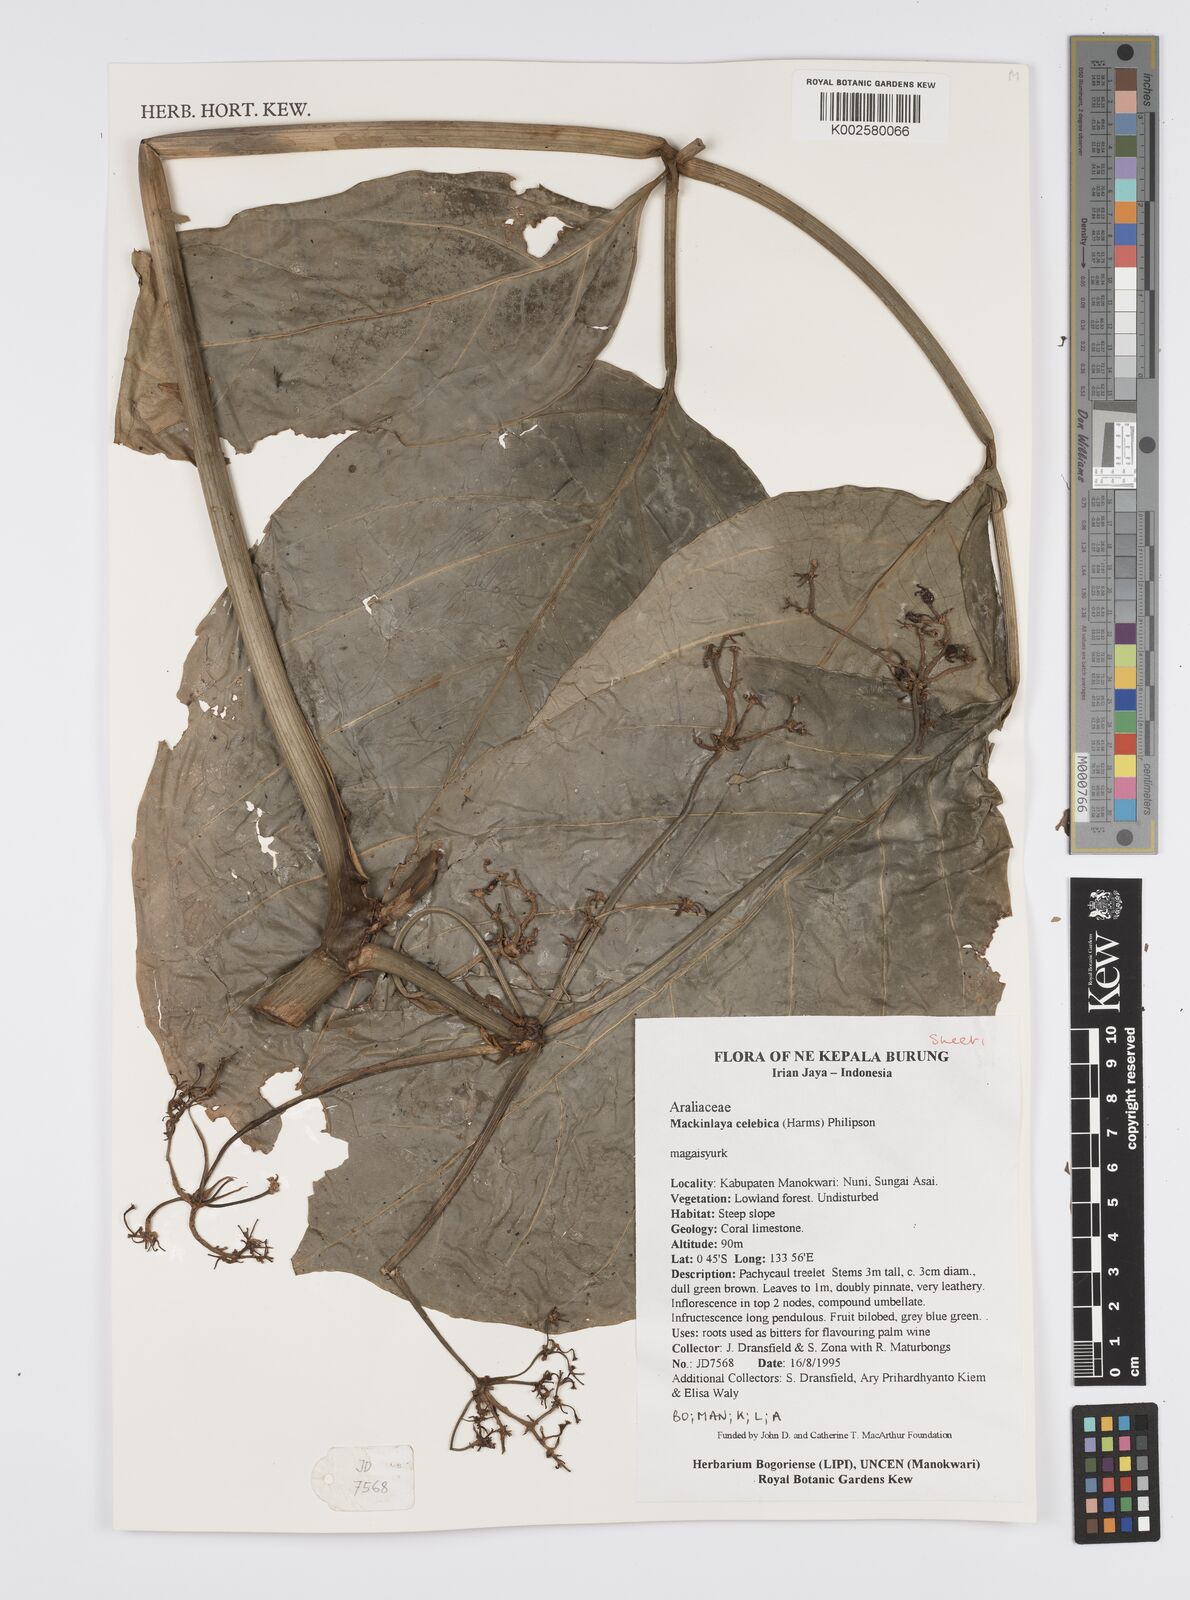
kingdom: Plantae
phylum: Tracheophyta
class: Magnoliopsida
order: Apiales
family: Apiaceae
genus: Mackinlaya
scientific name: Mackinlaya
